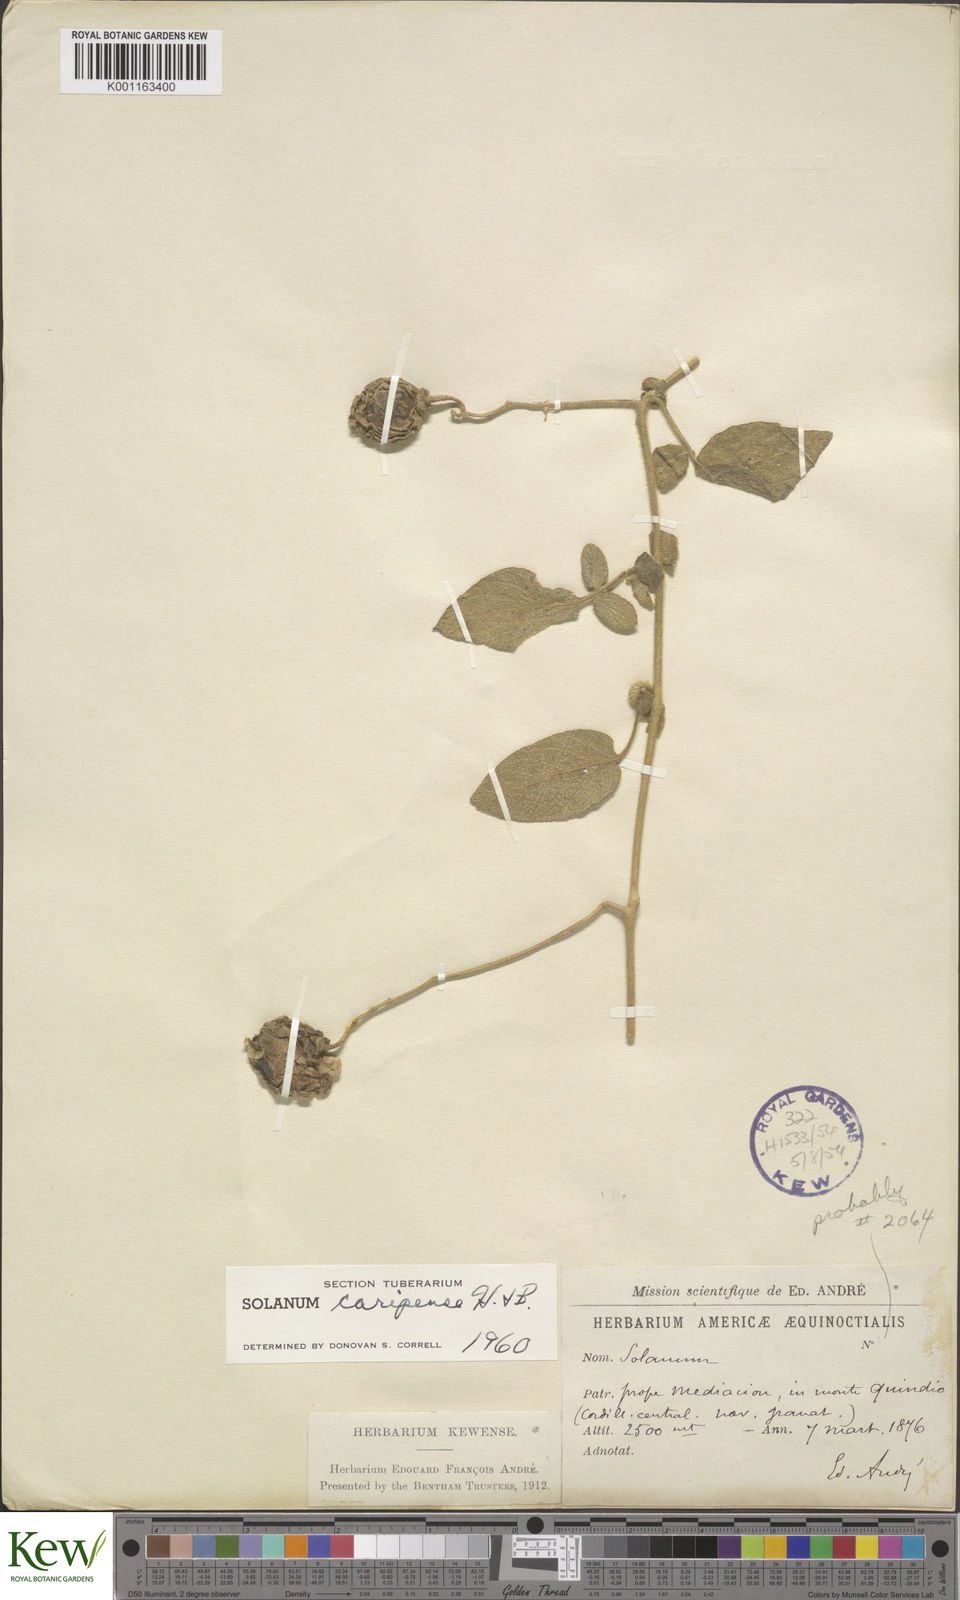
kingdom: Plantae
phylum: Tracheophyta
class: Magnoliopsida
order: Solanales
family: Solanaceae
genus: Solanum
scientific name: Solanum caripense
